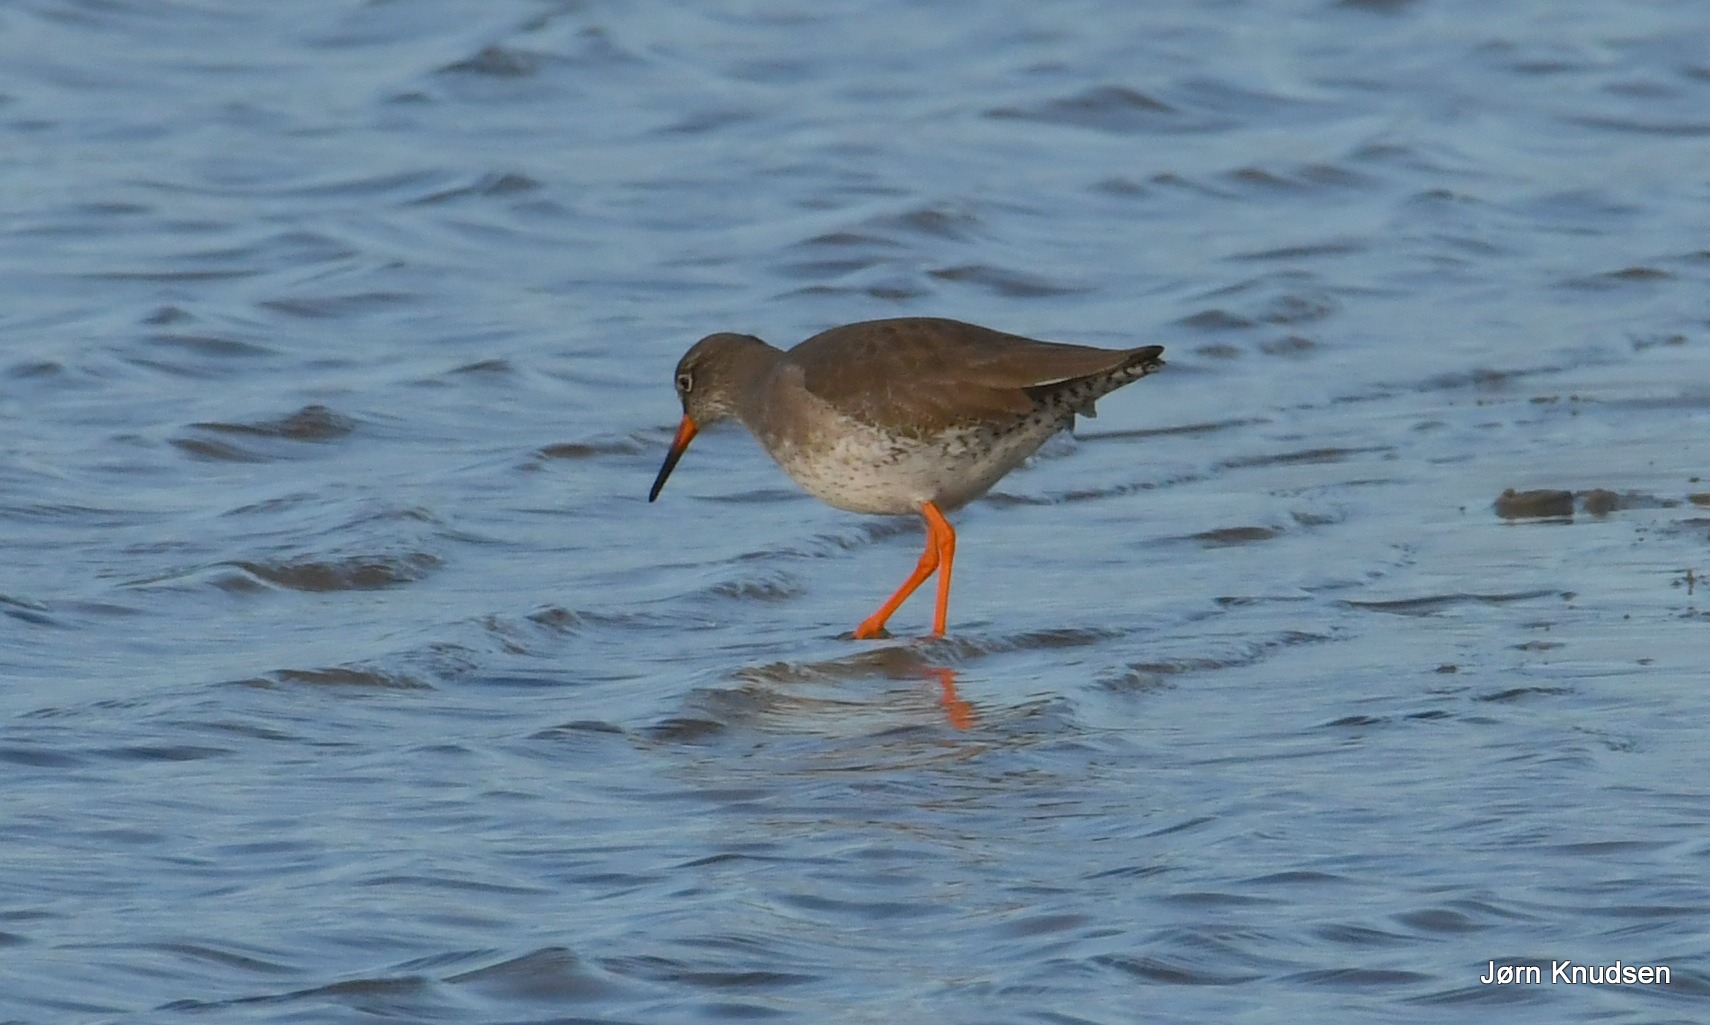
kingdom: Animalia
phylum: Chordata
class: Aves
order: Charadriiformes
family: Scolopacidae
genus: Tringa
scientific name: Tringa totanus
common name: Rødben
